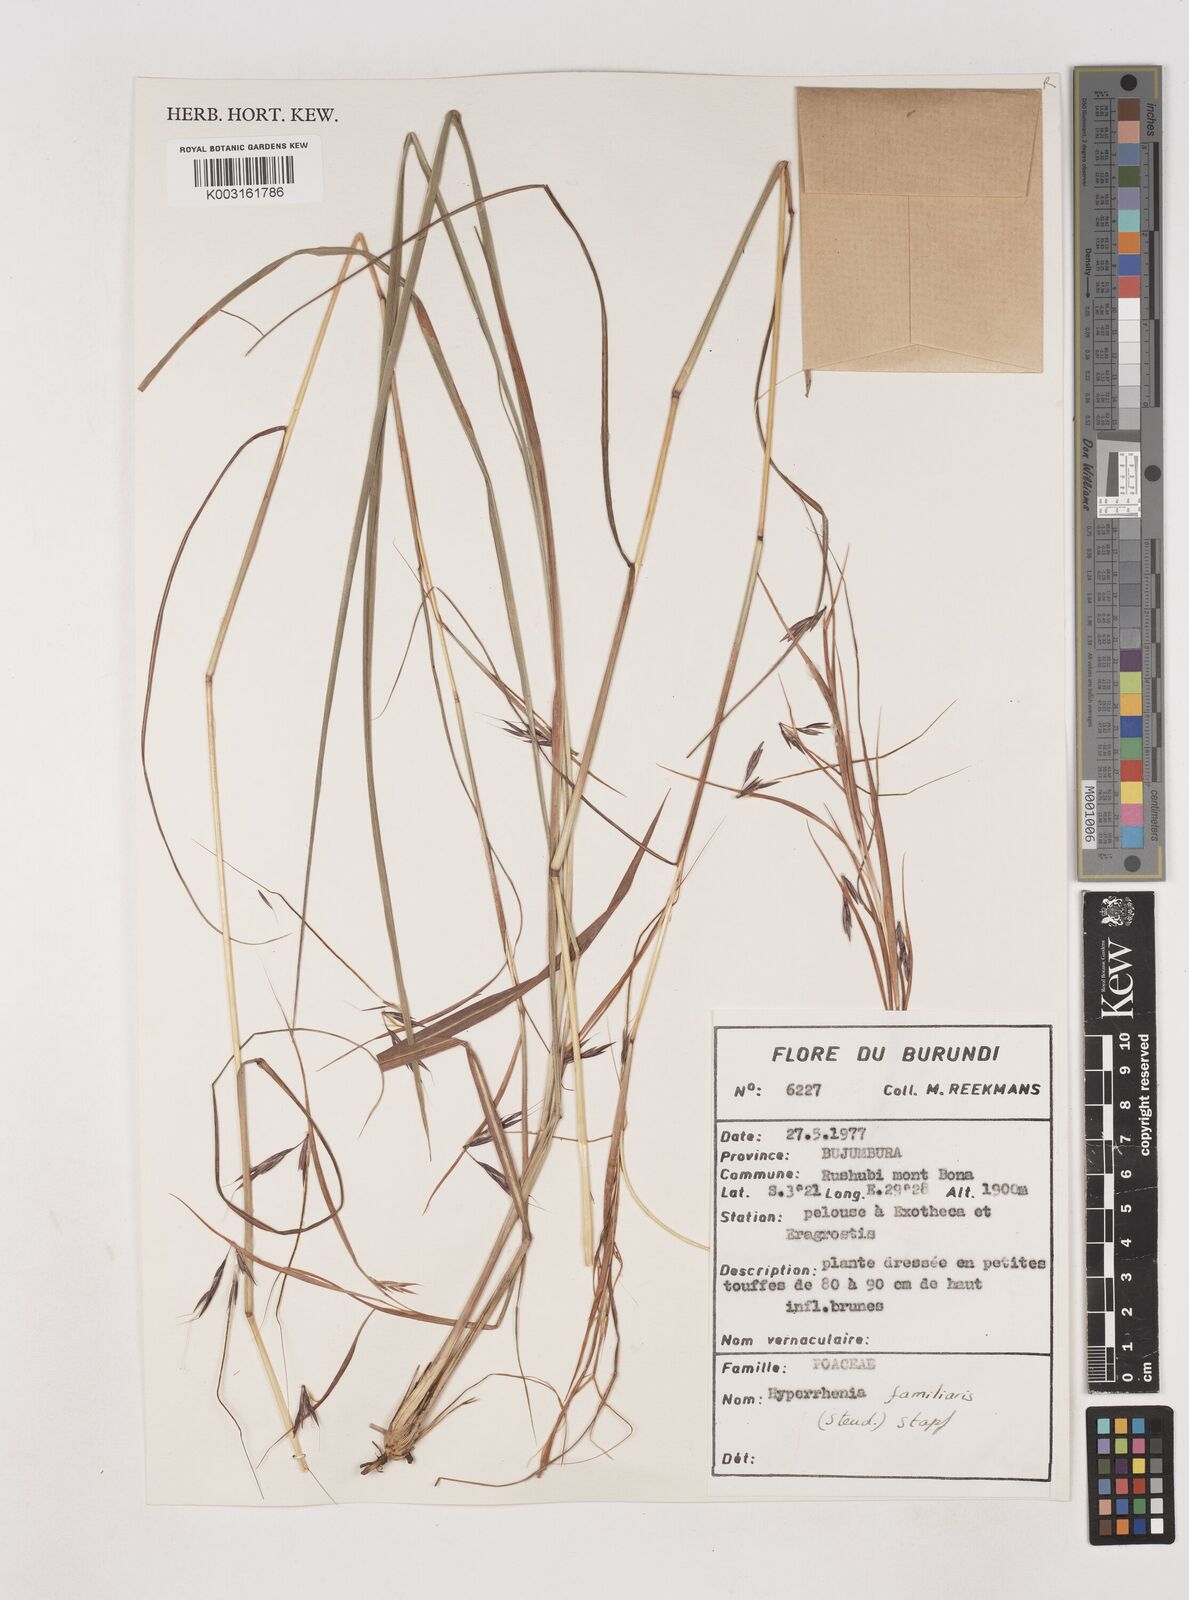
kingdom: Plantae
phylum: Tracheophyta
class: Liliopsida
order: Poales
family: Poaceae
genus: Hyparrhenia
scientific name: Hyparrhenia familiaris
